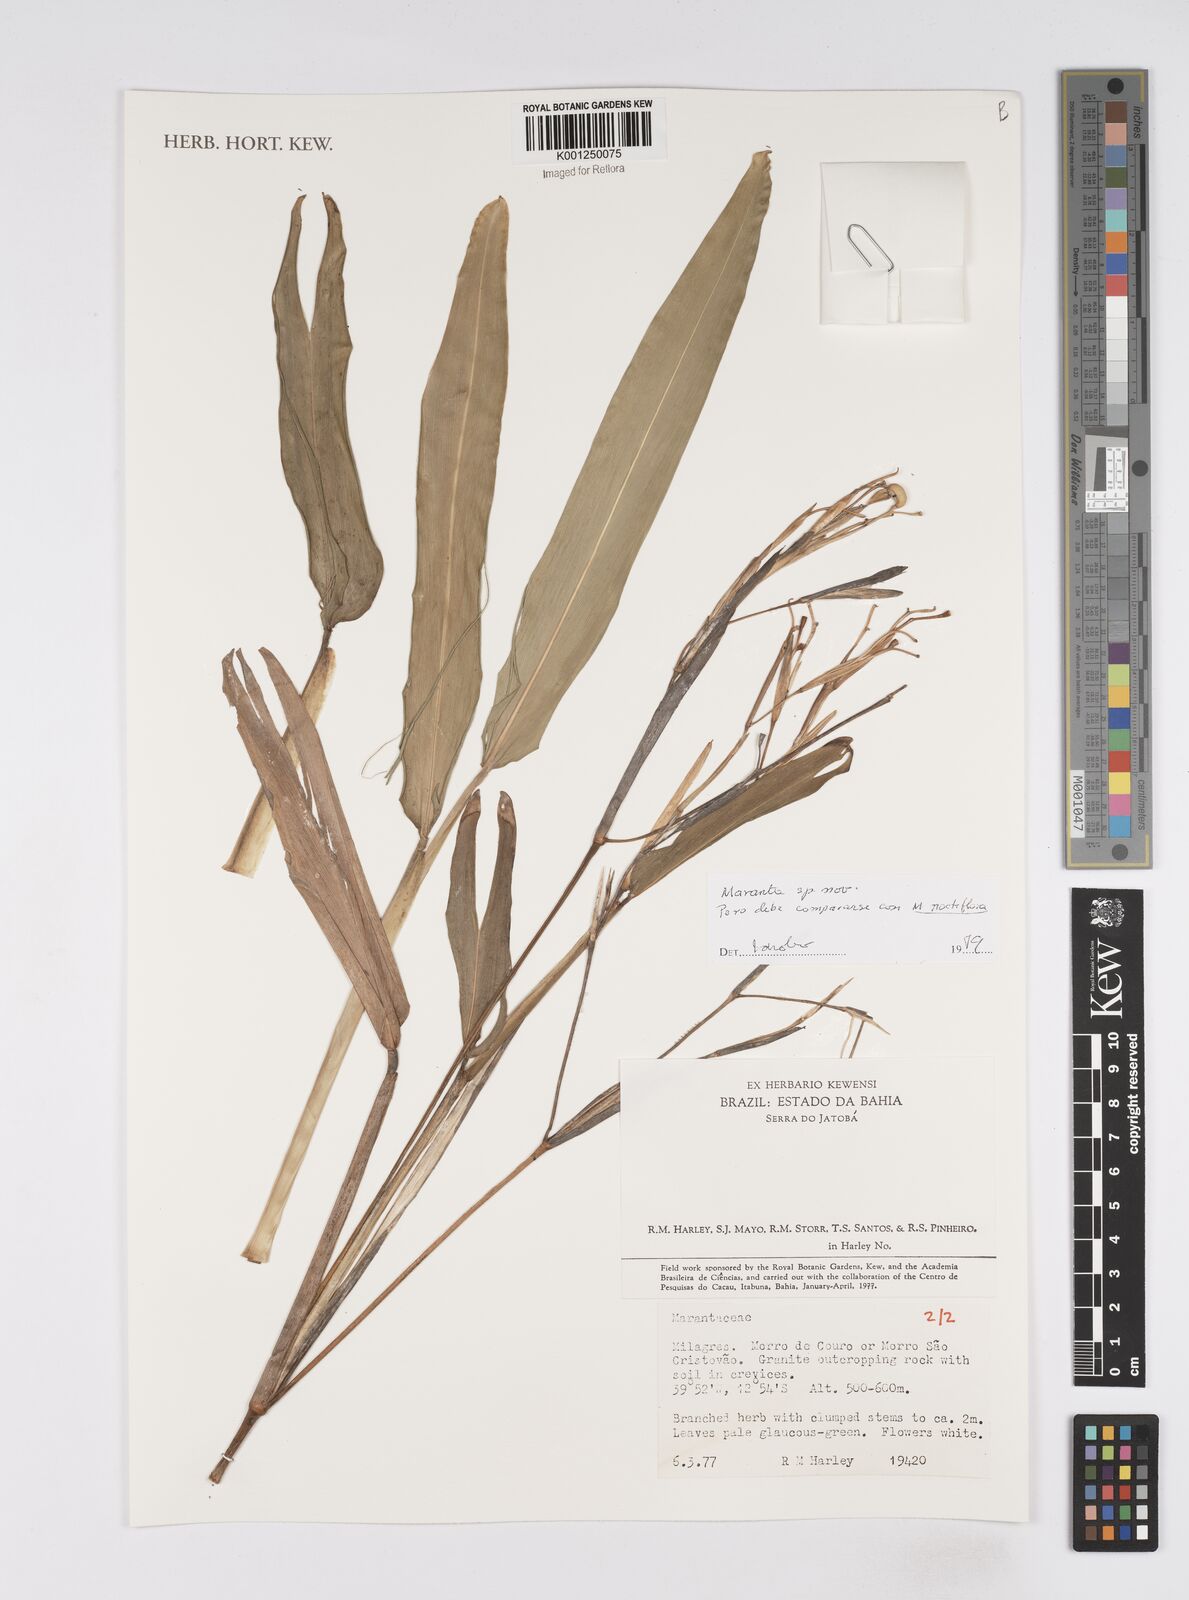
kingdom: Plantae
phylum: Tracheophyta
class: Liliopsida
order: Zingiberales
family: Marantaceae
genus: Ctenanthe
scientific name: Ctenanthe glabra
